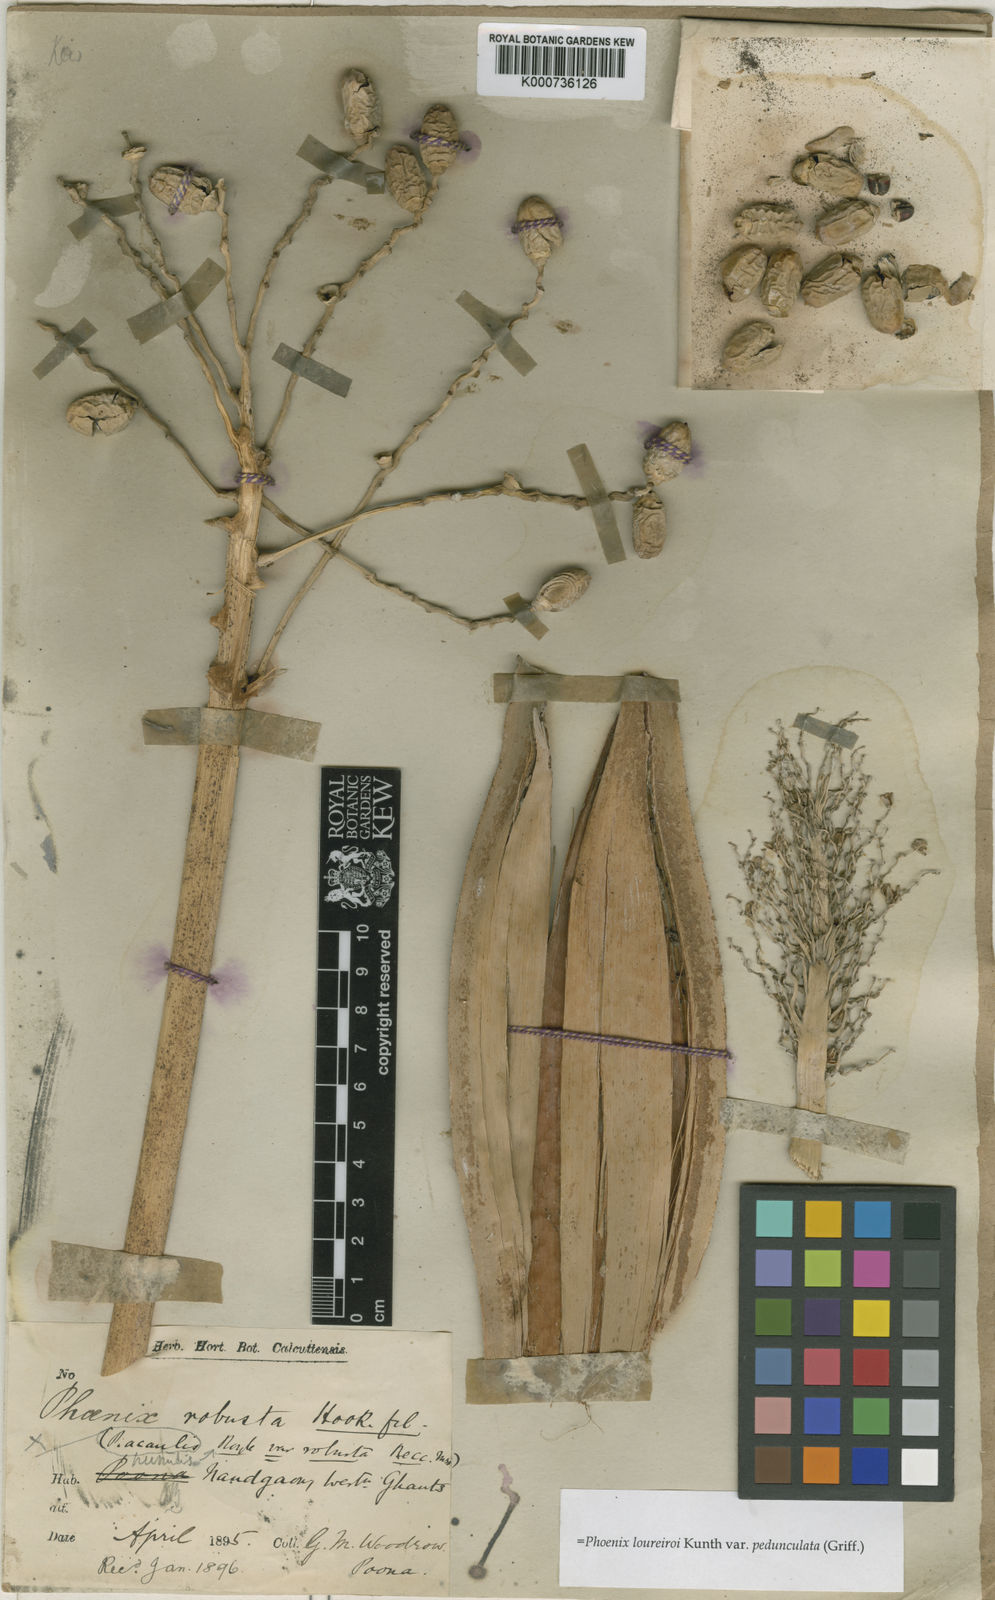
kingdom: Plantae
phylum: Tracheophyta
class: Liliopsida
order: Arecales
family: Arecaceae
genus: Phoenix
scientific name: Phoenix loureiroi
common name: Loureiro's palm
